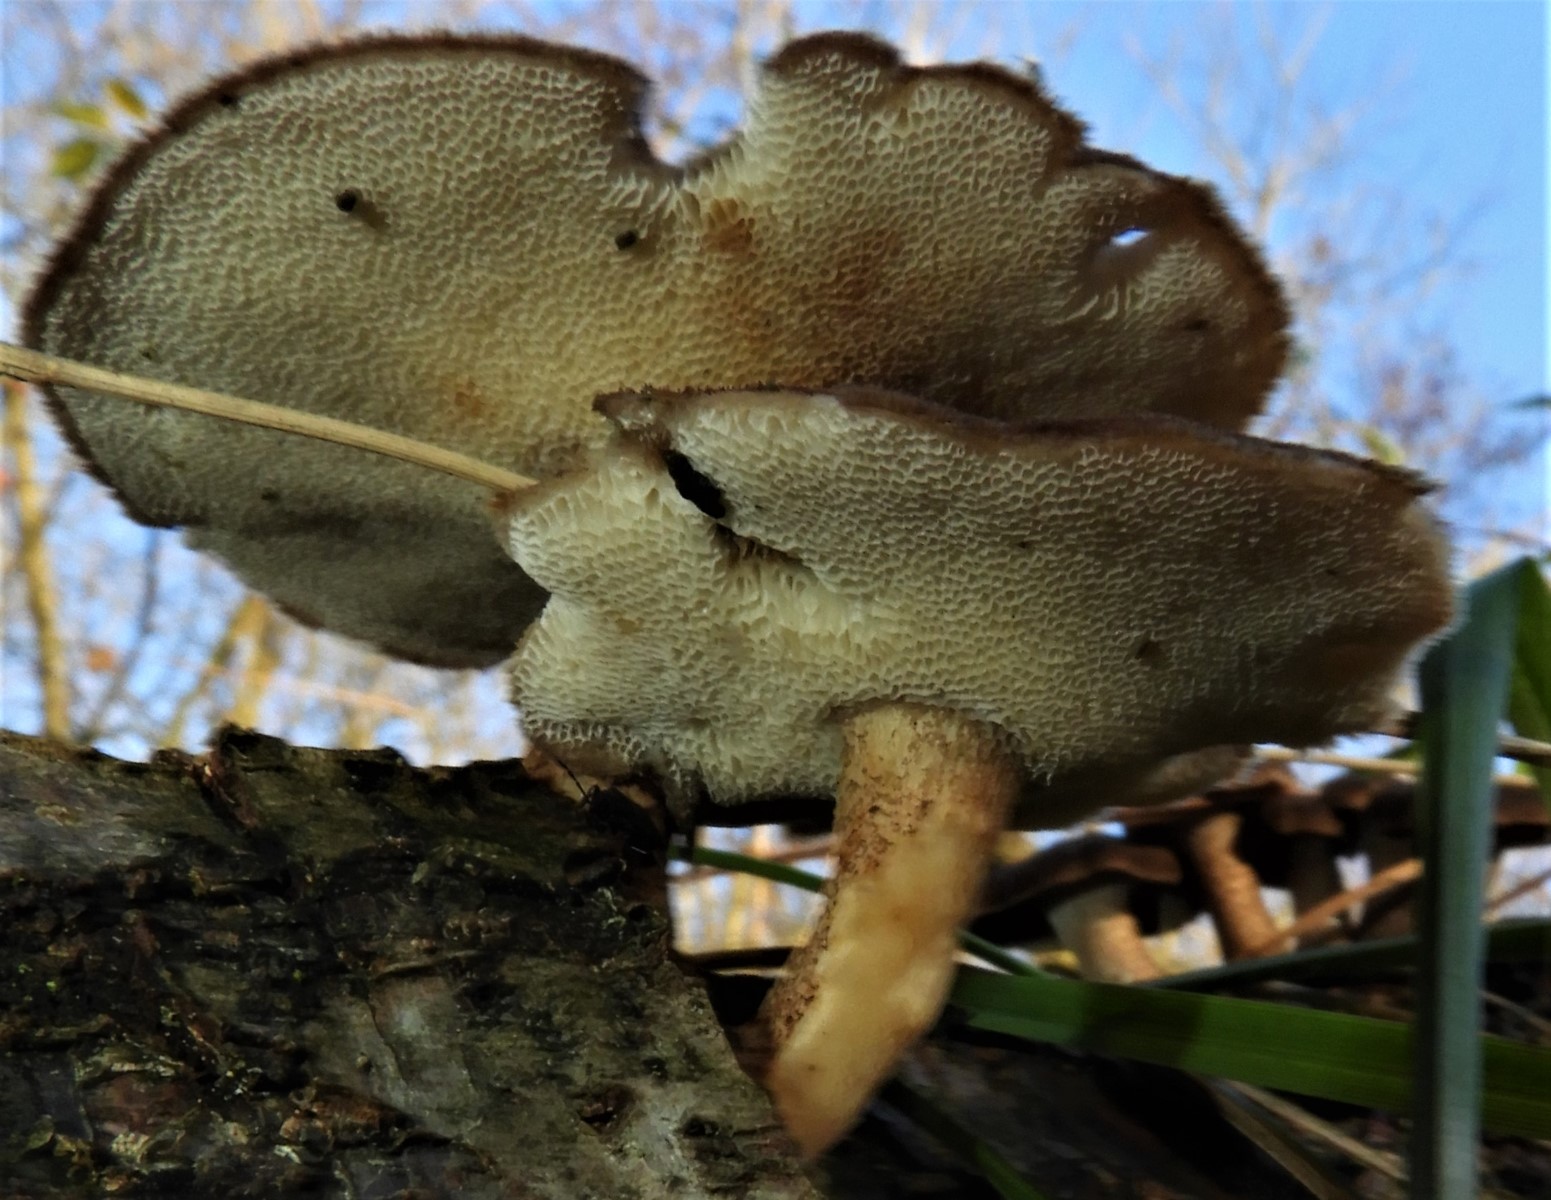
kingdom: Fungi
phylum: Basidiomycota
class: Agaricomycetes
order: Polyporales
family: Polyporaceae
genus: Lentinus
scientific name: Lentinus brumalis
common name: vinter-stilkporesvamp
